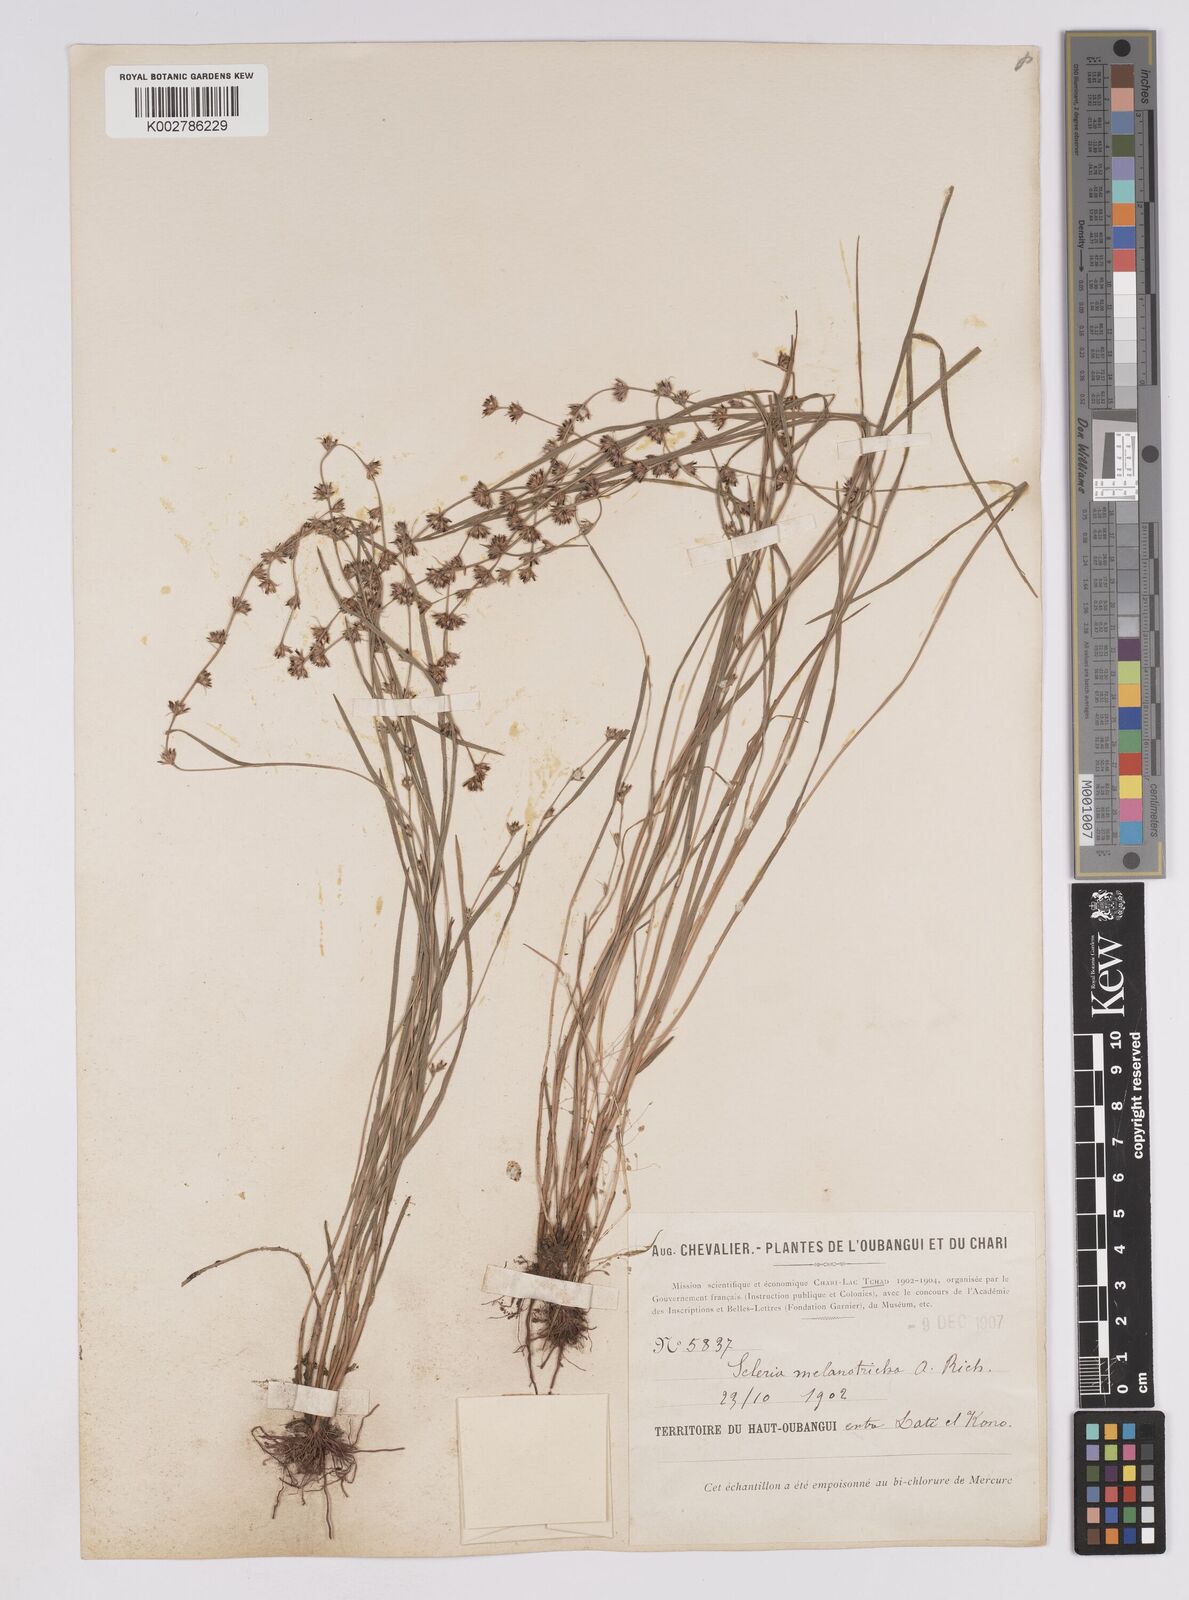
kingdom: Plantae
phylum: Tracheophyta
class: Liliopsida
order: Poales
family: Cyperaceae
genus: Scleria
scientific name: Scleria hirtella
